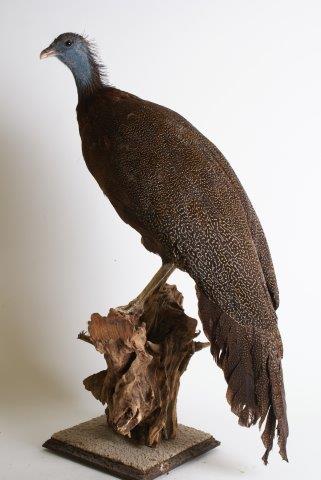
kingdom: Animalia
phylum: Chordata
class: Aves
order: Galliformes
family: Phasianidae
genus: Argusianus
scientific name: Argusianus argus
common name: Great argus
